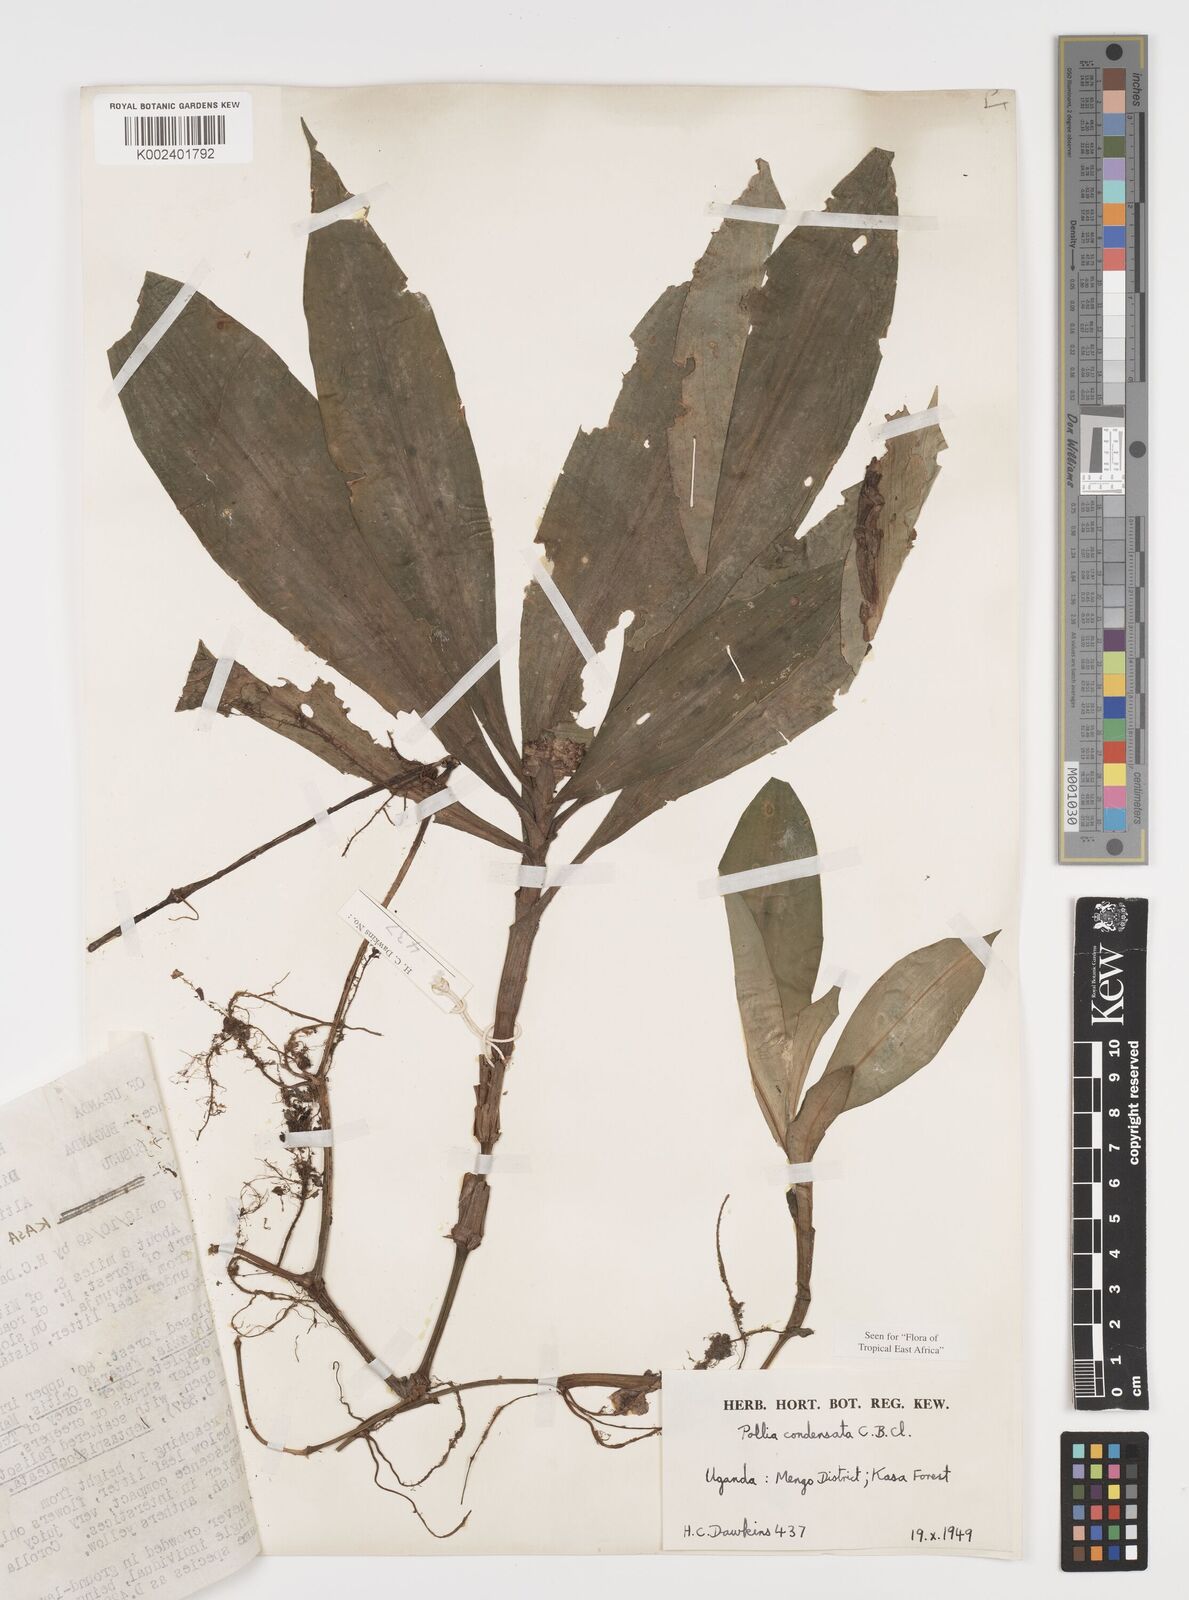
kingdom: Plantae
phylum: Tracheophyta
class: Liliopsida
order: Commelinales
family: Commelinaceae
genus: Pollia
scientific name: Pollia condensata
